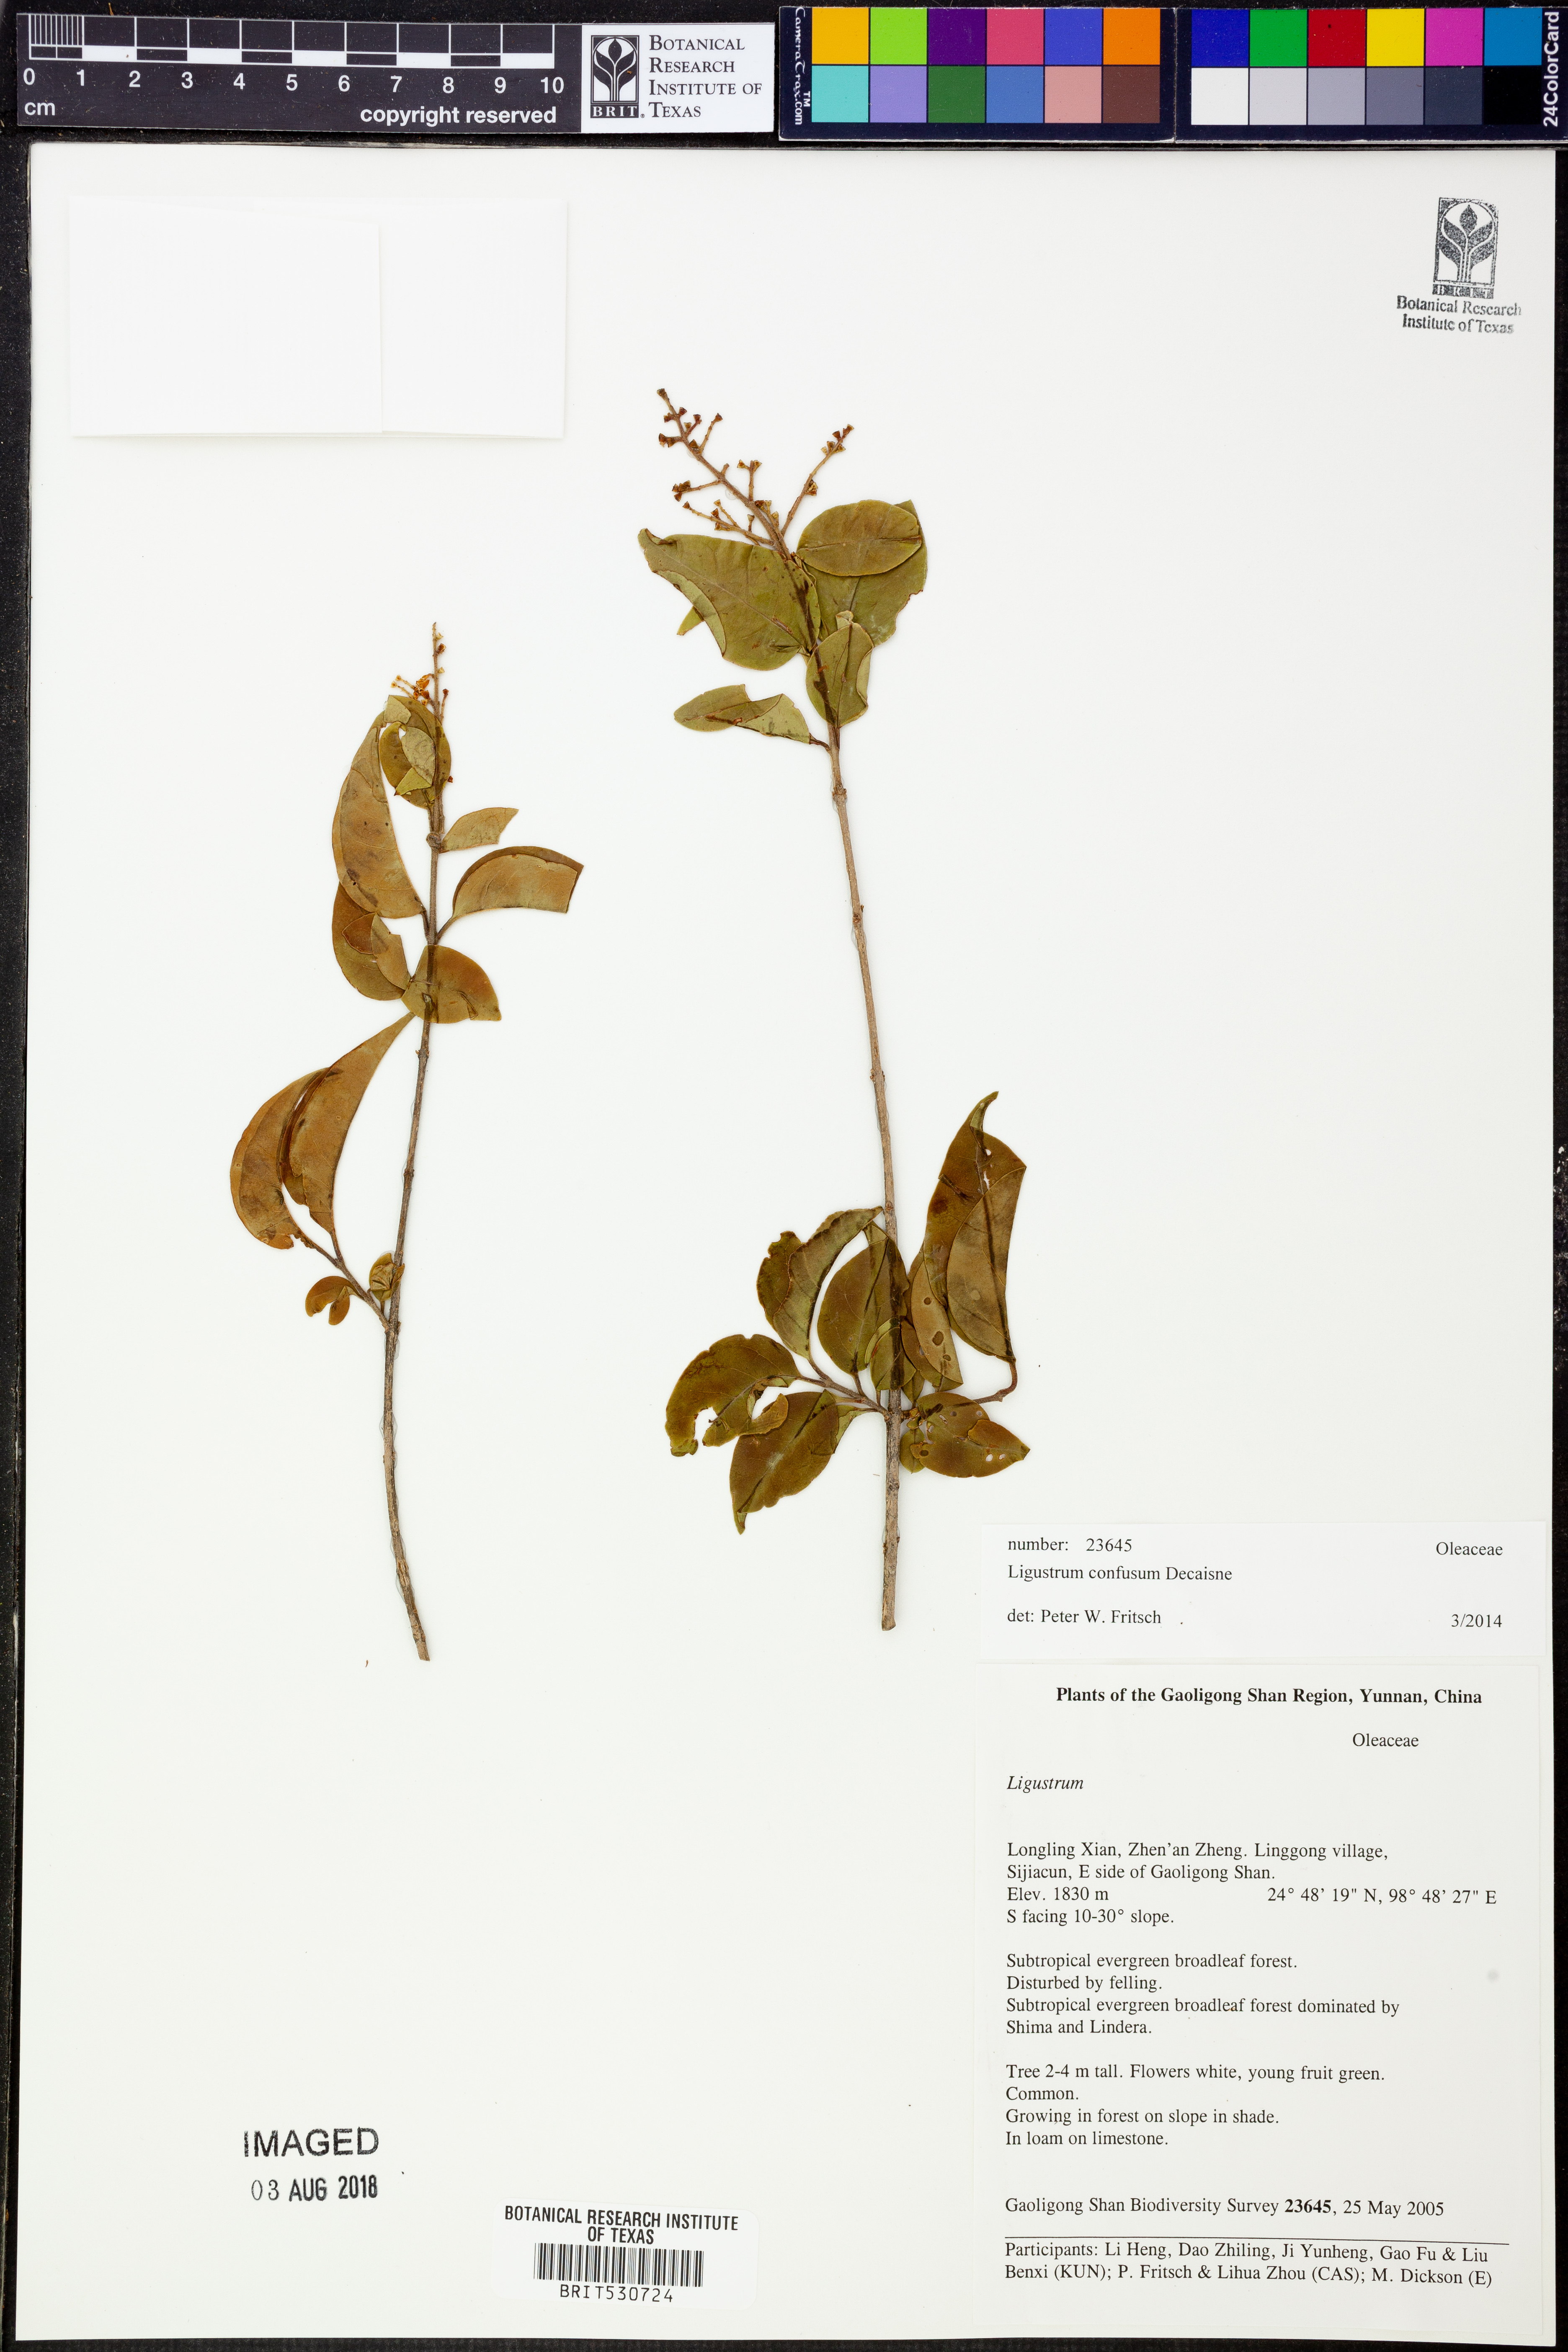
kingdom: Plantae
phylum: Tracheophyta
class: Magnoliopsida
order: Lamiales
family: Oleaceae
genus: Ligustrum
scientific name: Ligustrum confusum
